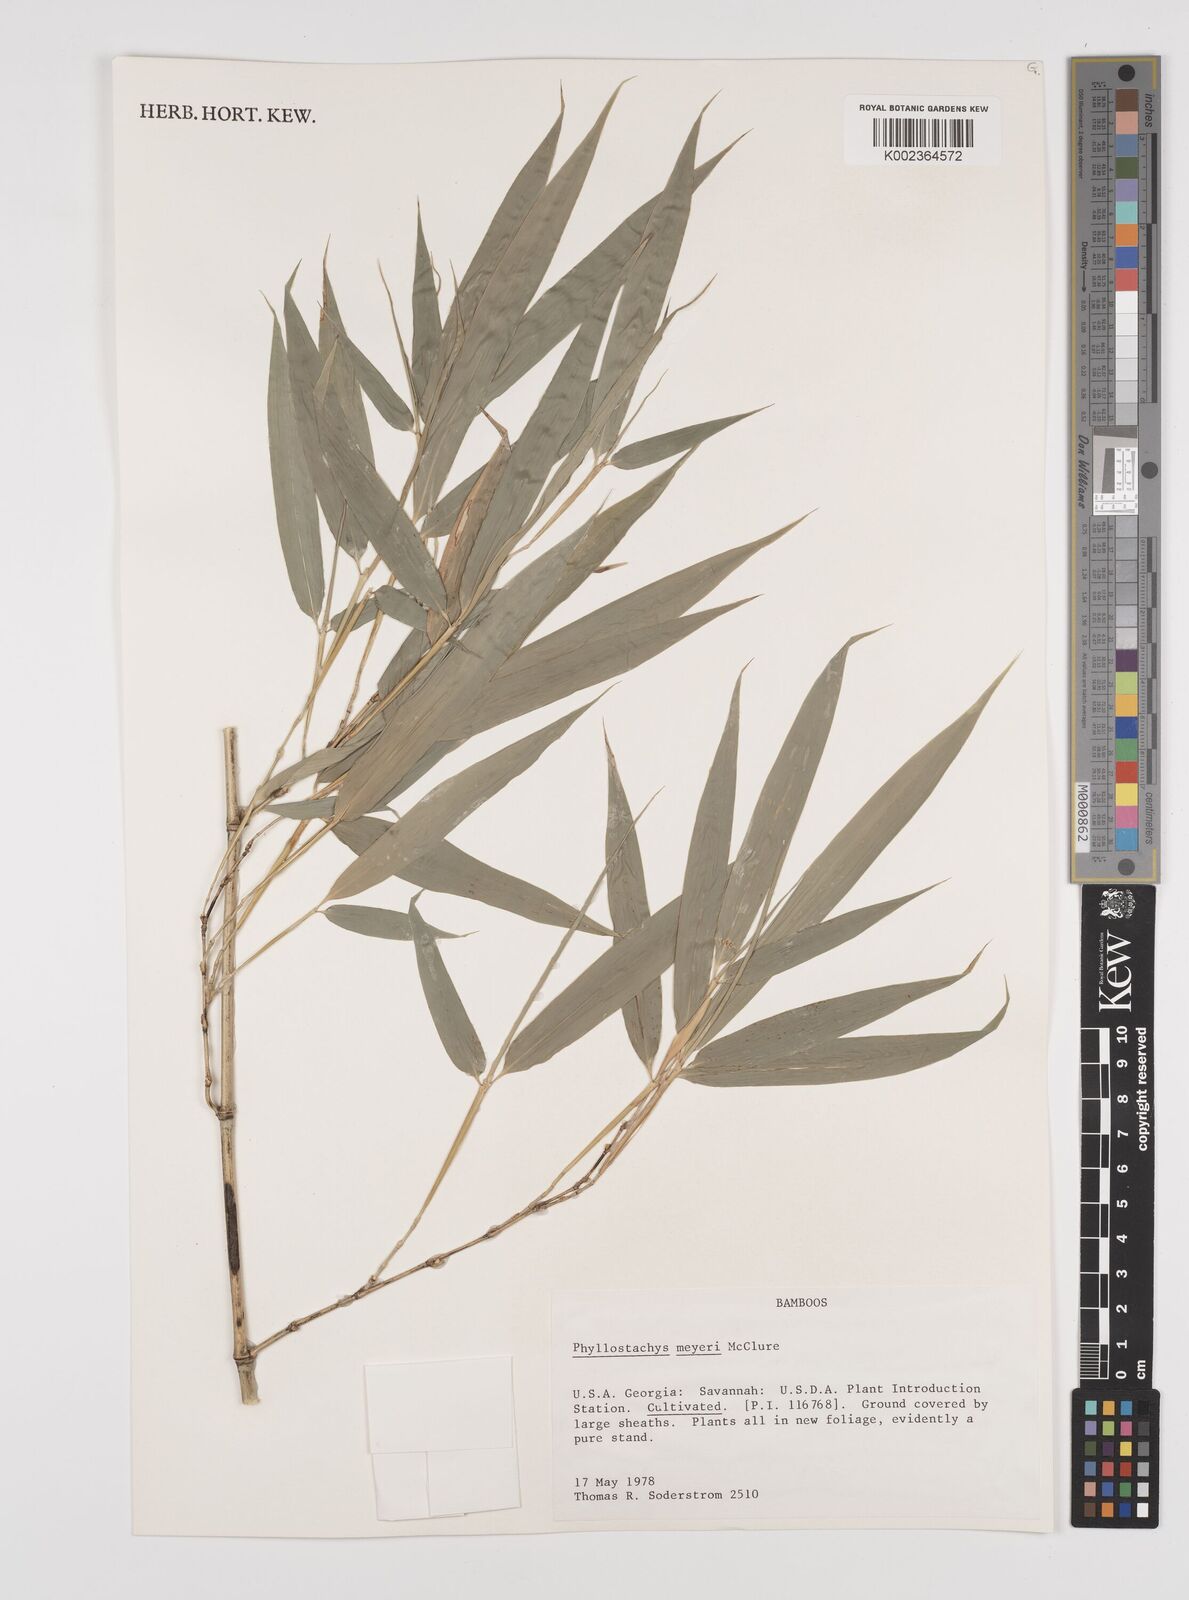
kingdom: Plantae
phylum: Tracheophyta
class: Liliopsida
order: Poales
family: Poaceae
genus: Phyllostachys
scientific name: Phyllostachys meyeri
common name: Meyer's bamboo
